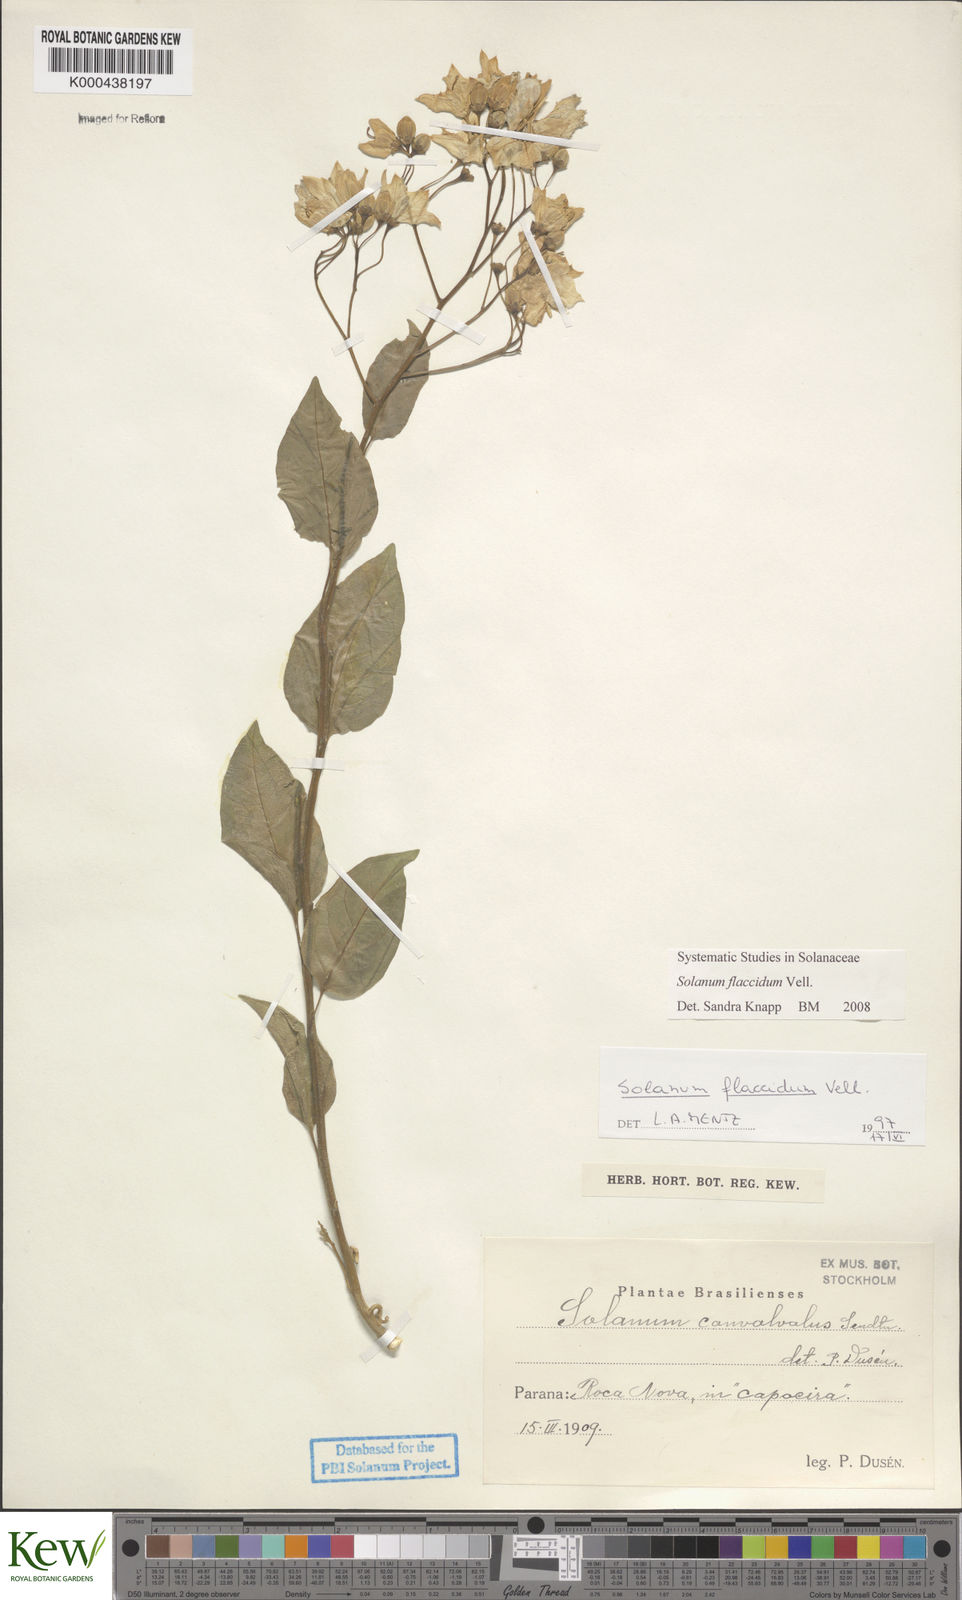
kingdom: Plantae
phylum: Tracheophyta
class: Magnoliopsida
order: Solanales
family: Solanaceae
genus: Solanum
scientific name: Solanum flaccidum
